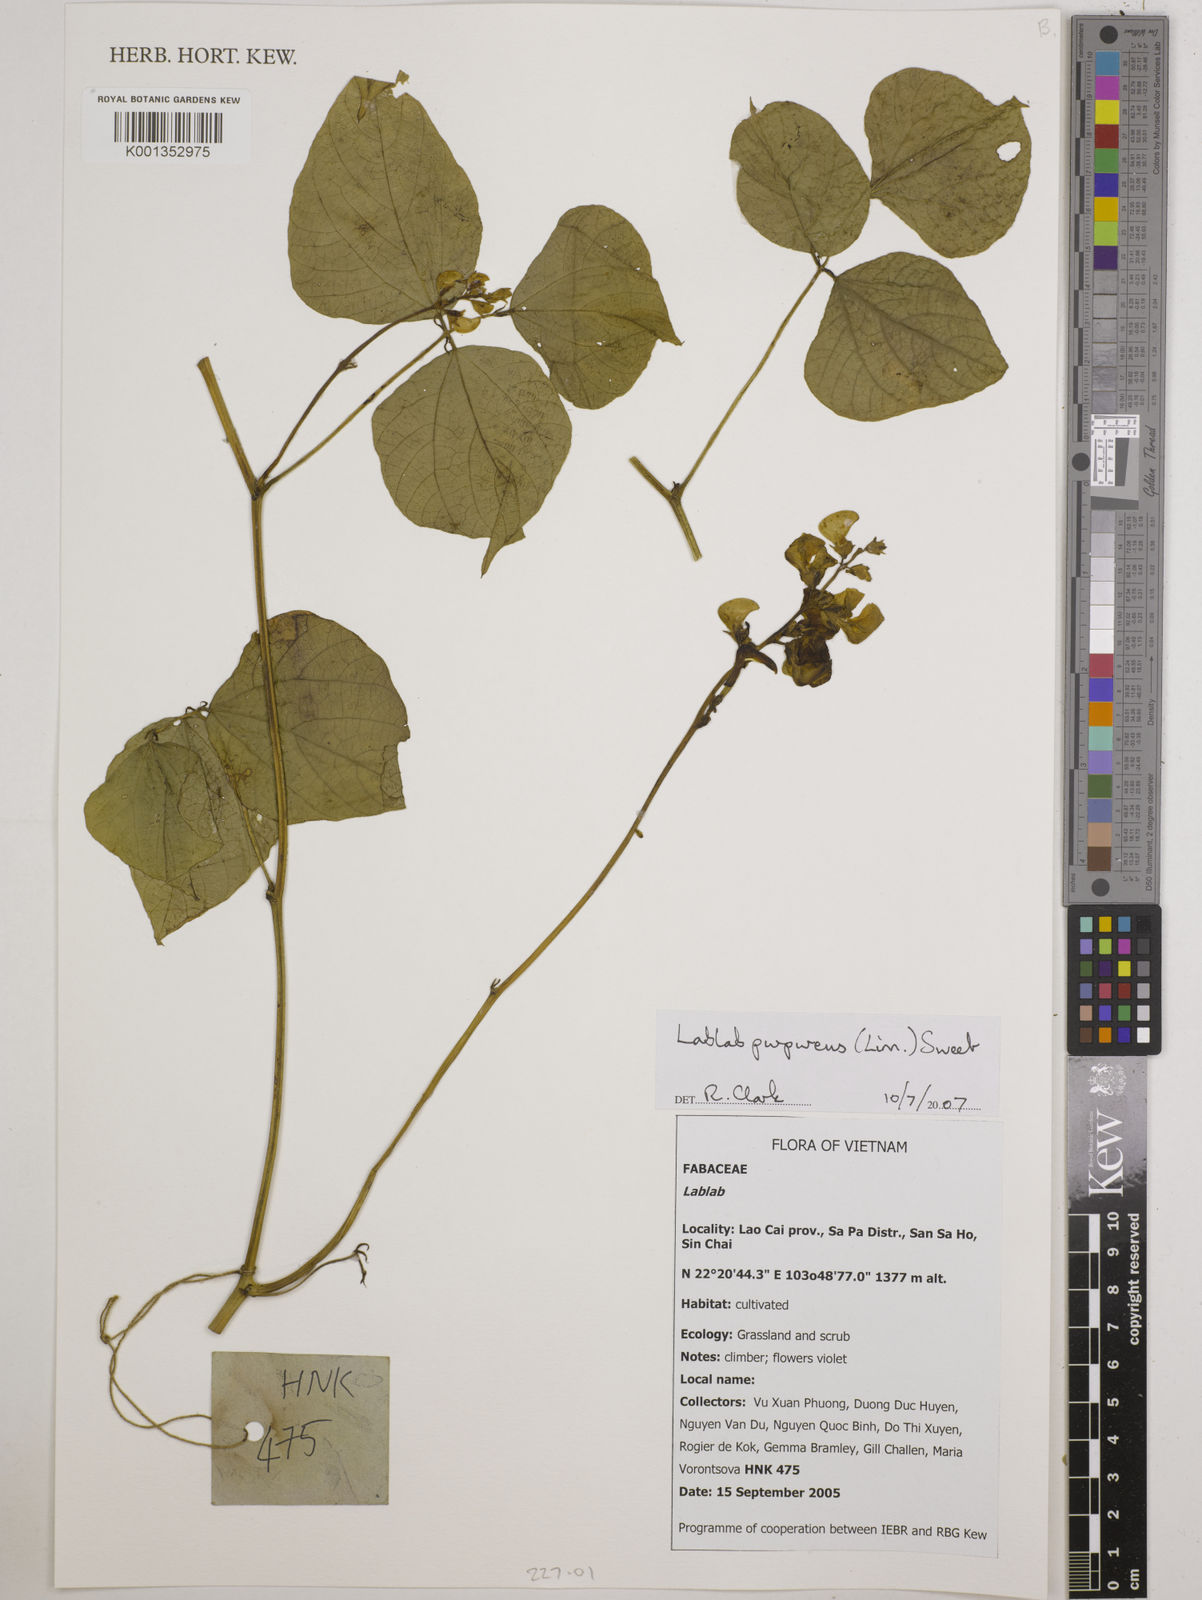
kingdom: Plantae
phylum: Tracheophyta
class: Magnoliopsida
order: Fabales
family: Fabaceae
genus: Lablab
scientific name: Lablab purpureus
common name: Lablab-bean
